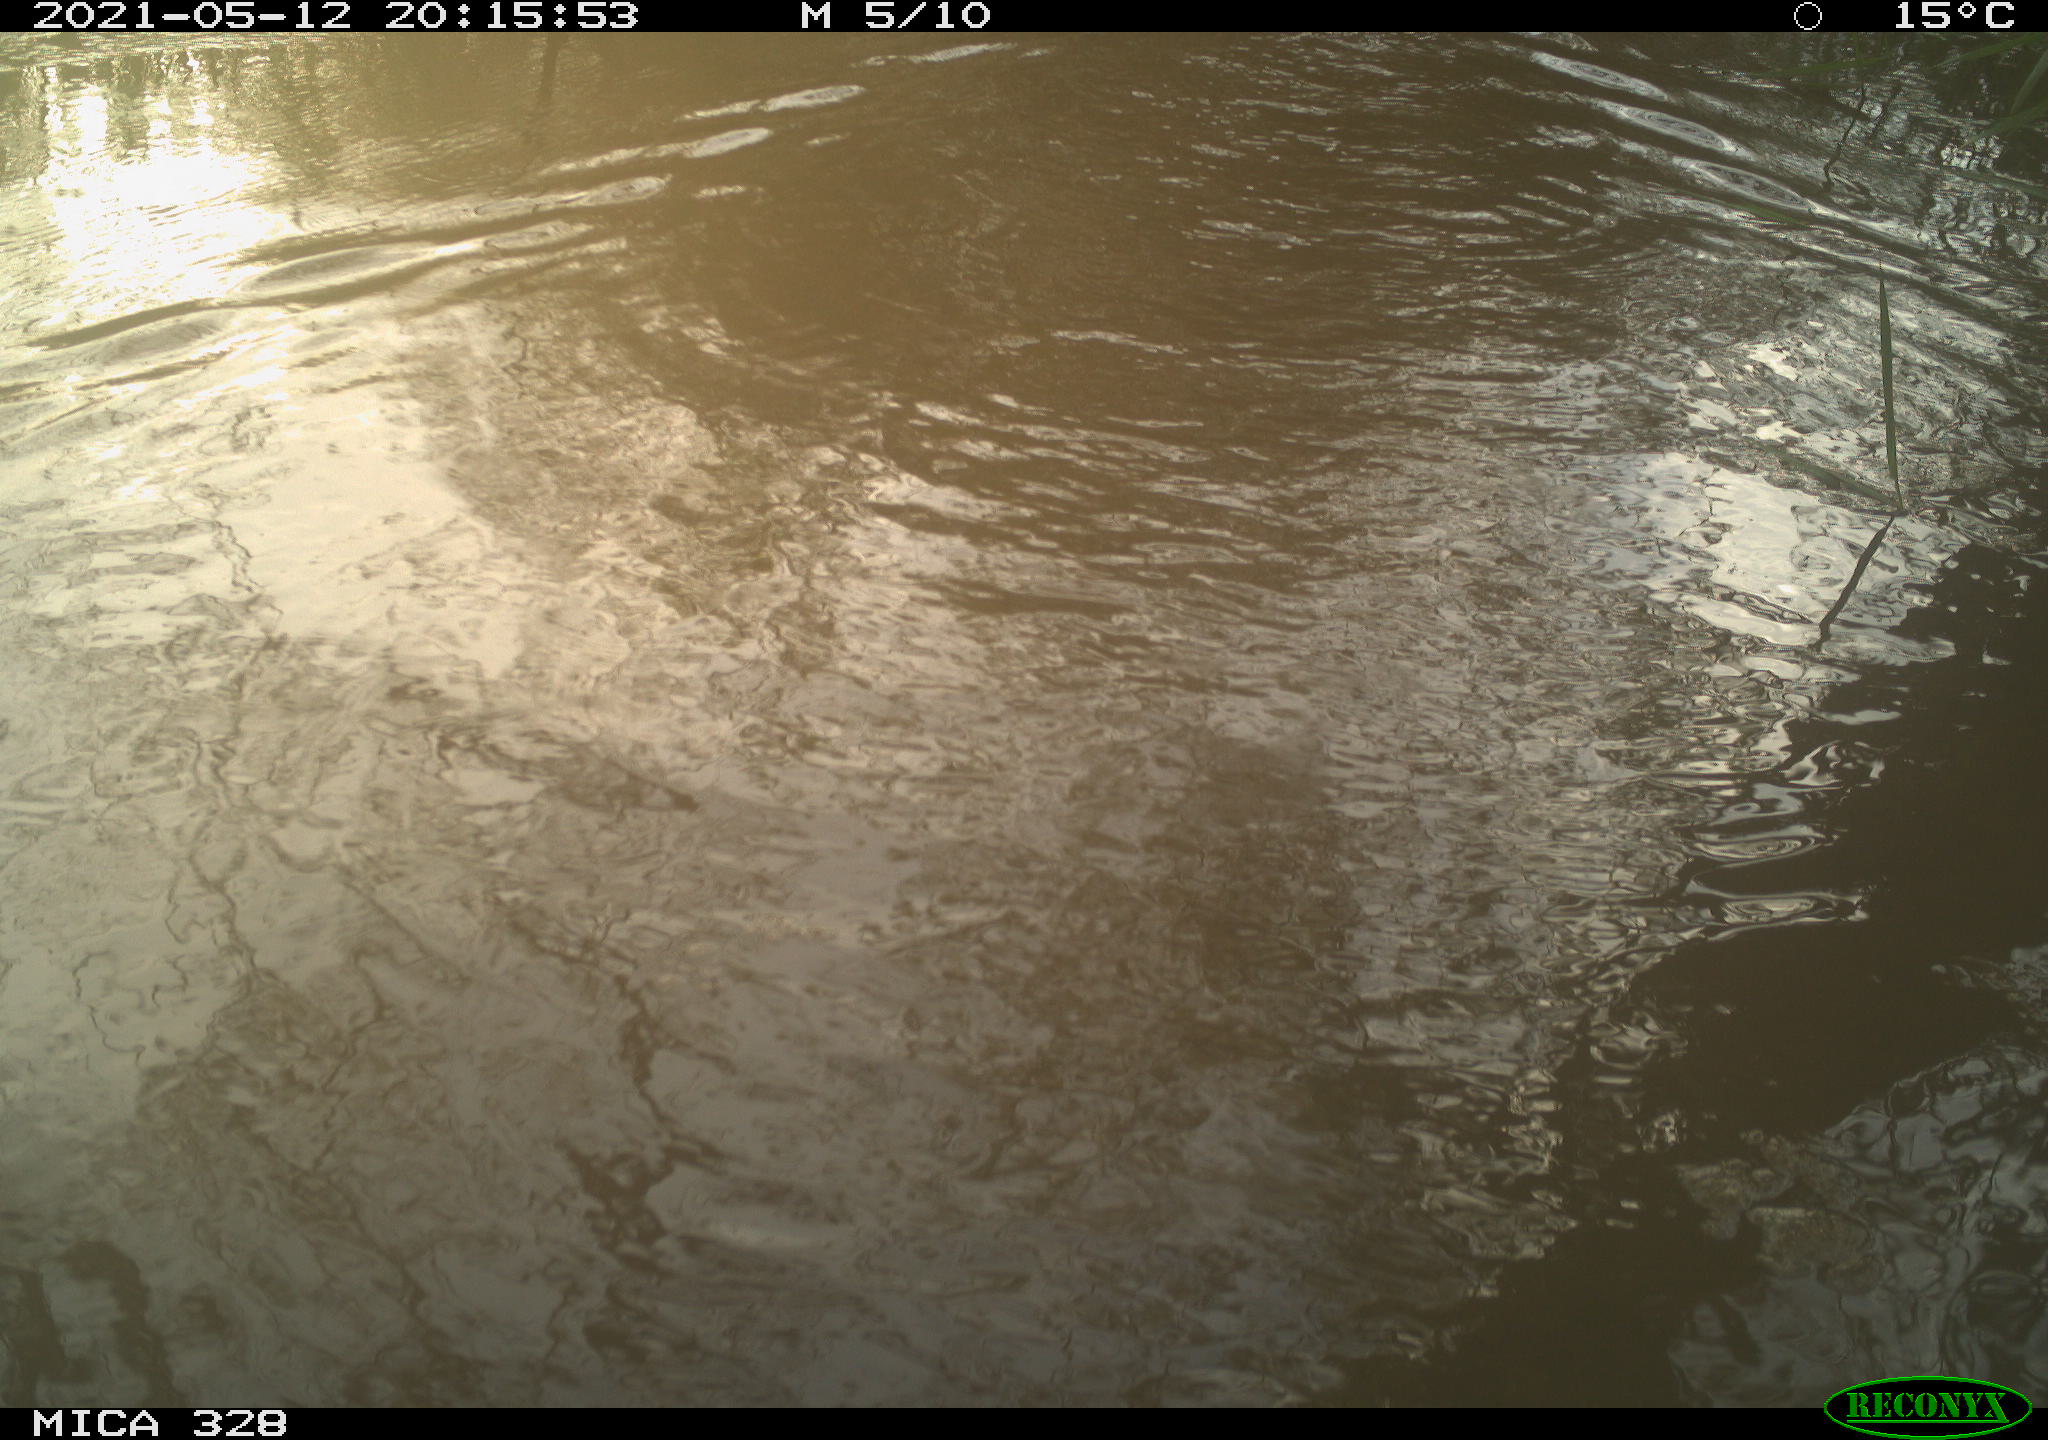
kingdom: Animalia
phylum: Chordata
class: Mammalia
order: Rodentia
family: Cricetidae
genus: Ondatra
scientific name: Ondatra zibethicus
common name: Muskrat
